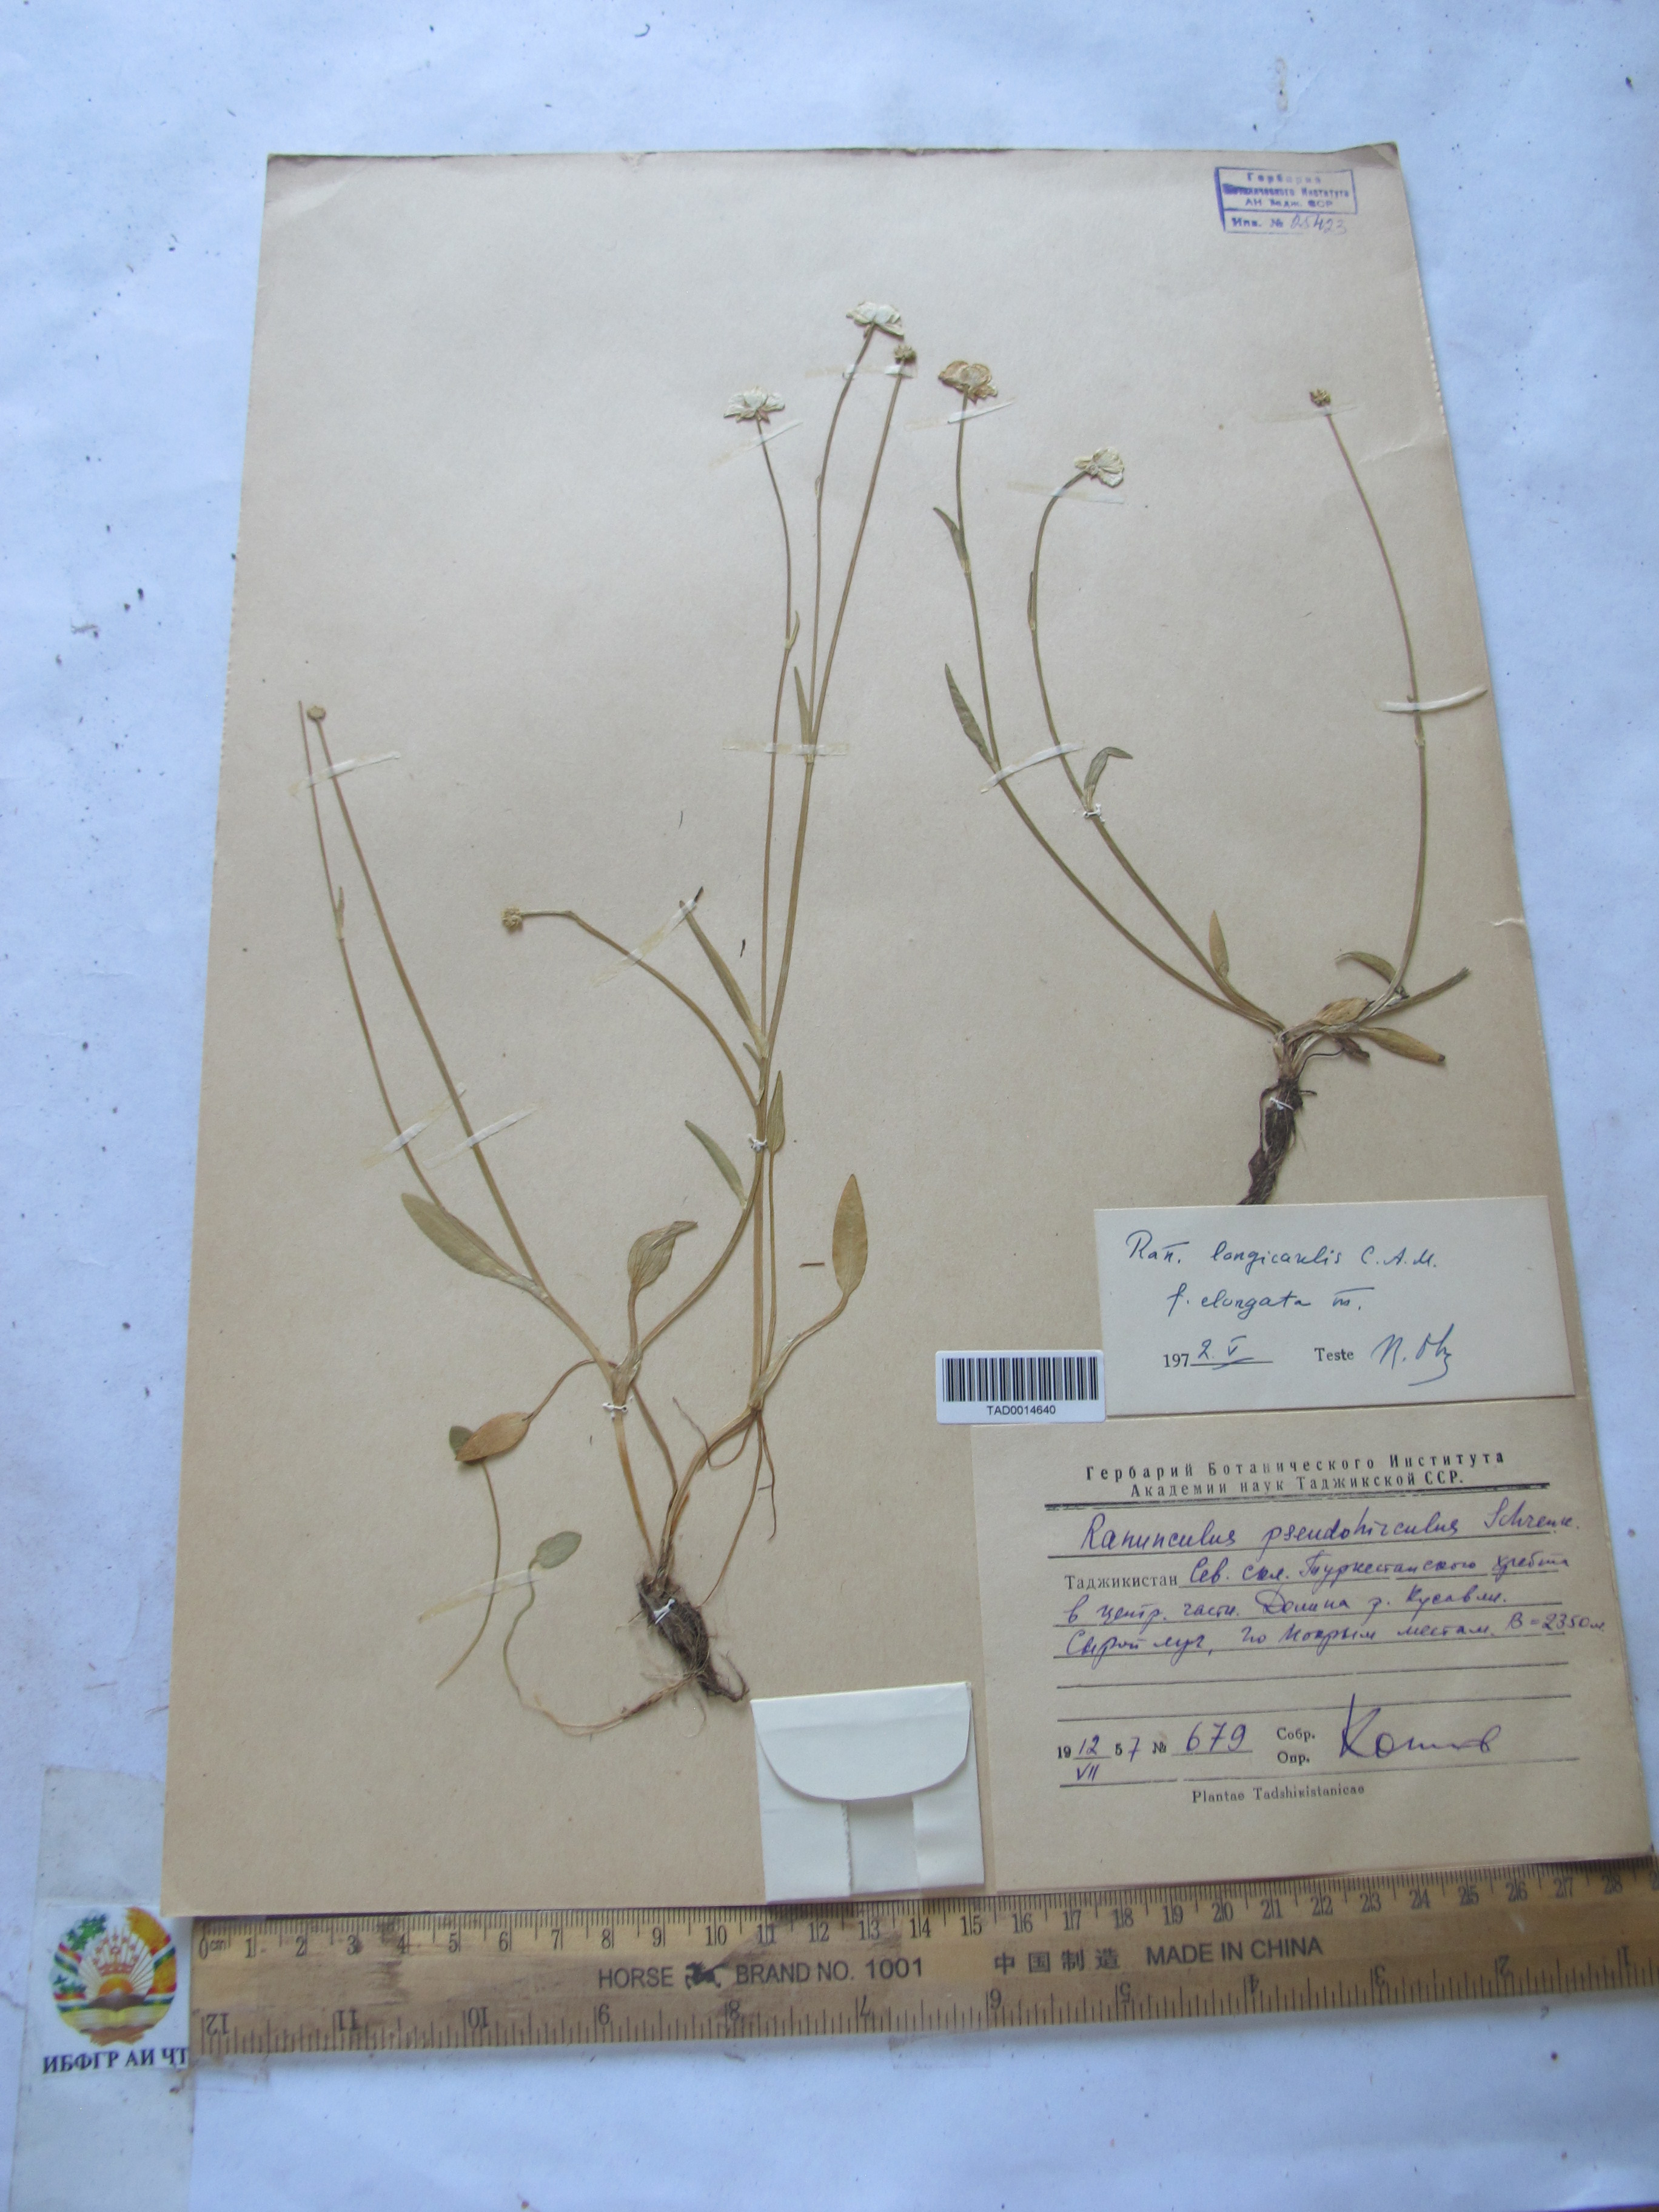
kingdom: Plantae
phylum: Tracheophyta
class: Magnoliopsida
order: Ranunculales
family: Ranunculaceae
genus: Ranunculus
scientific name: Ranunculus longicaulis
